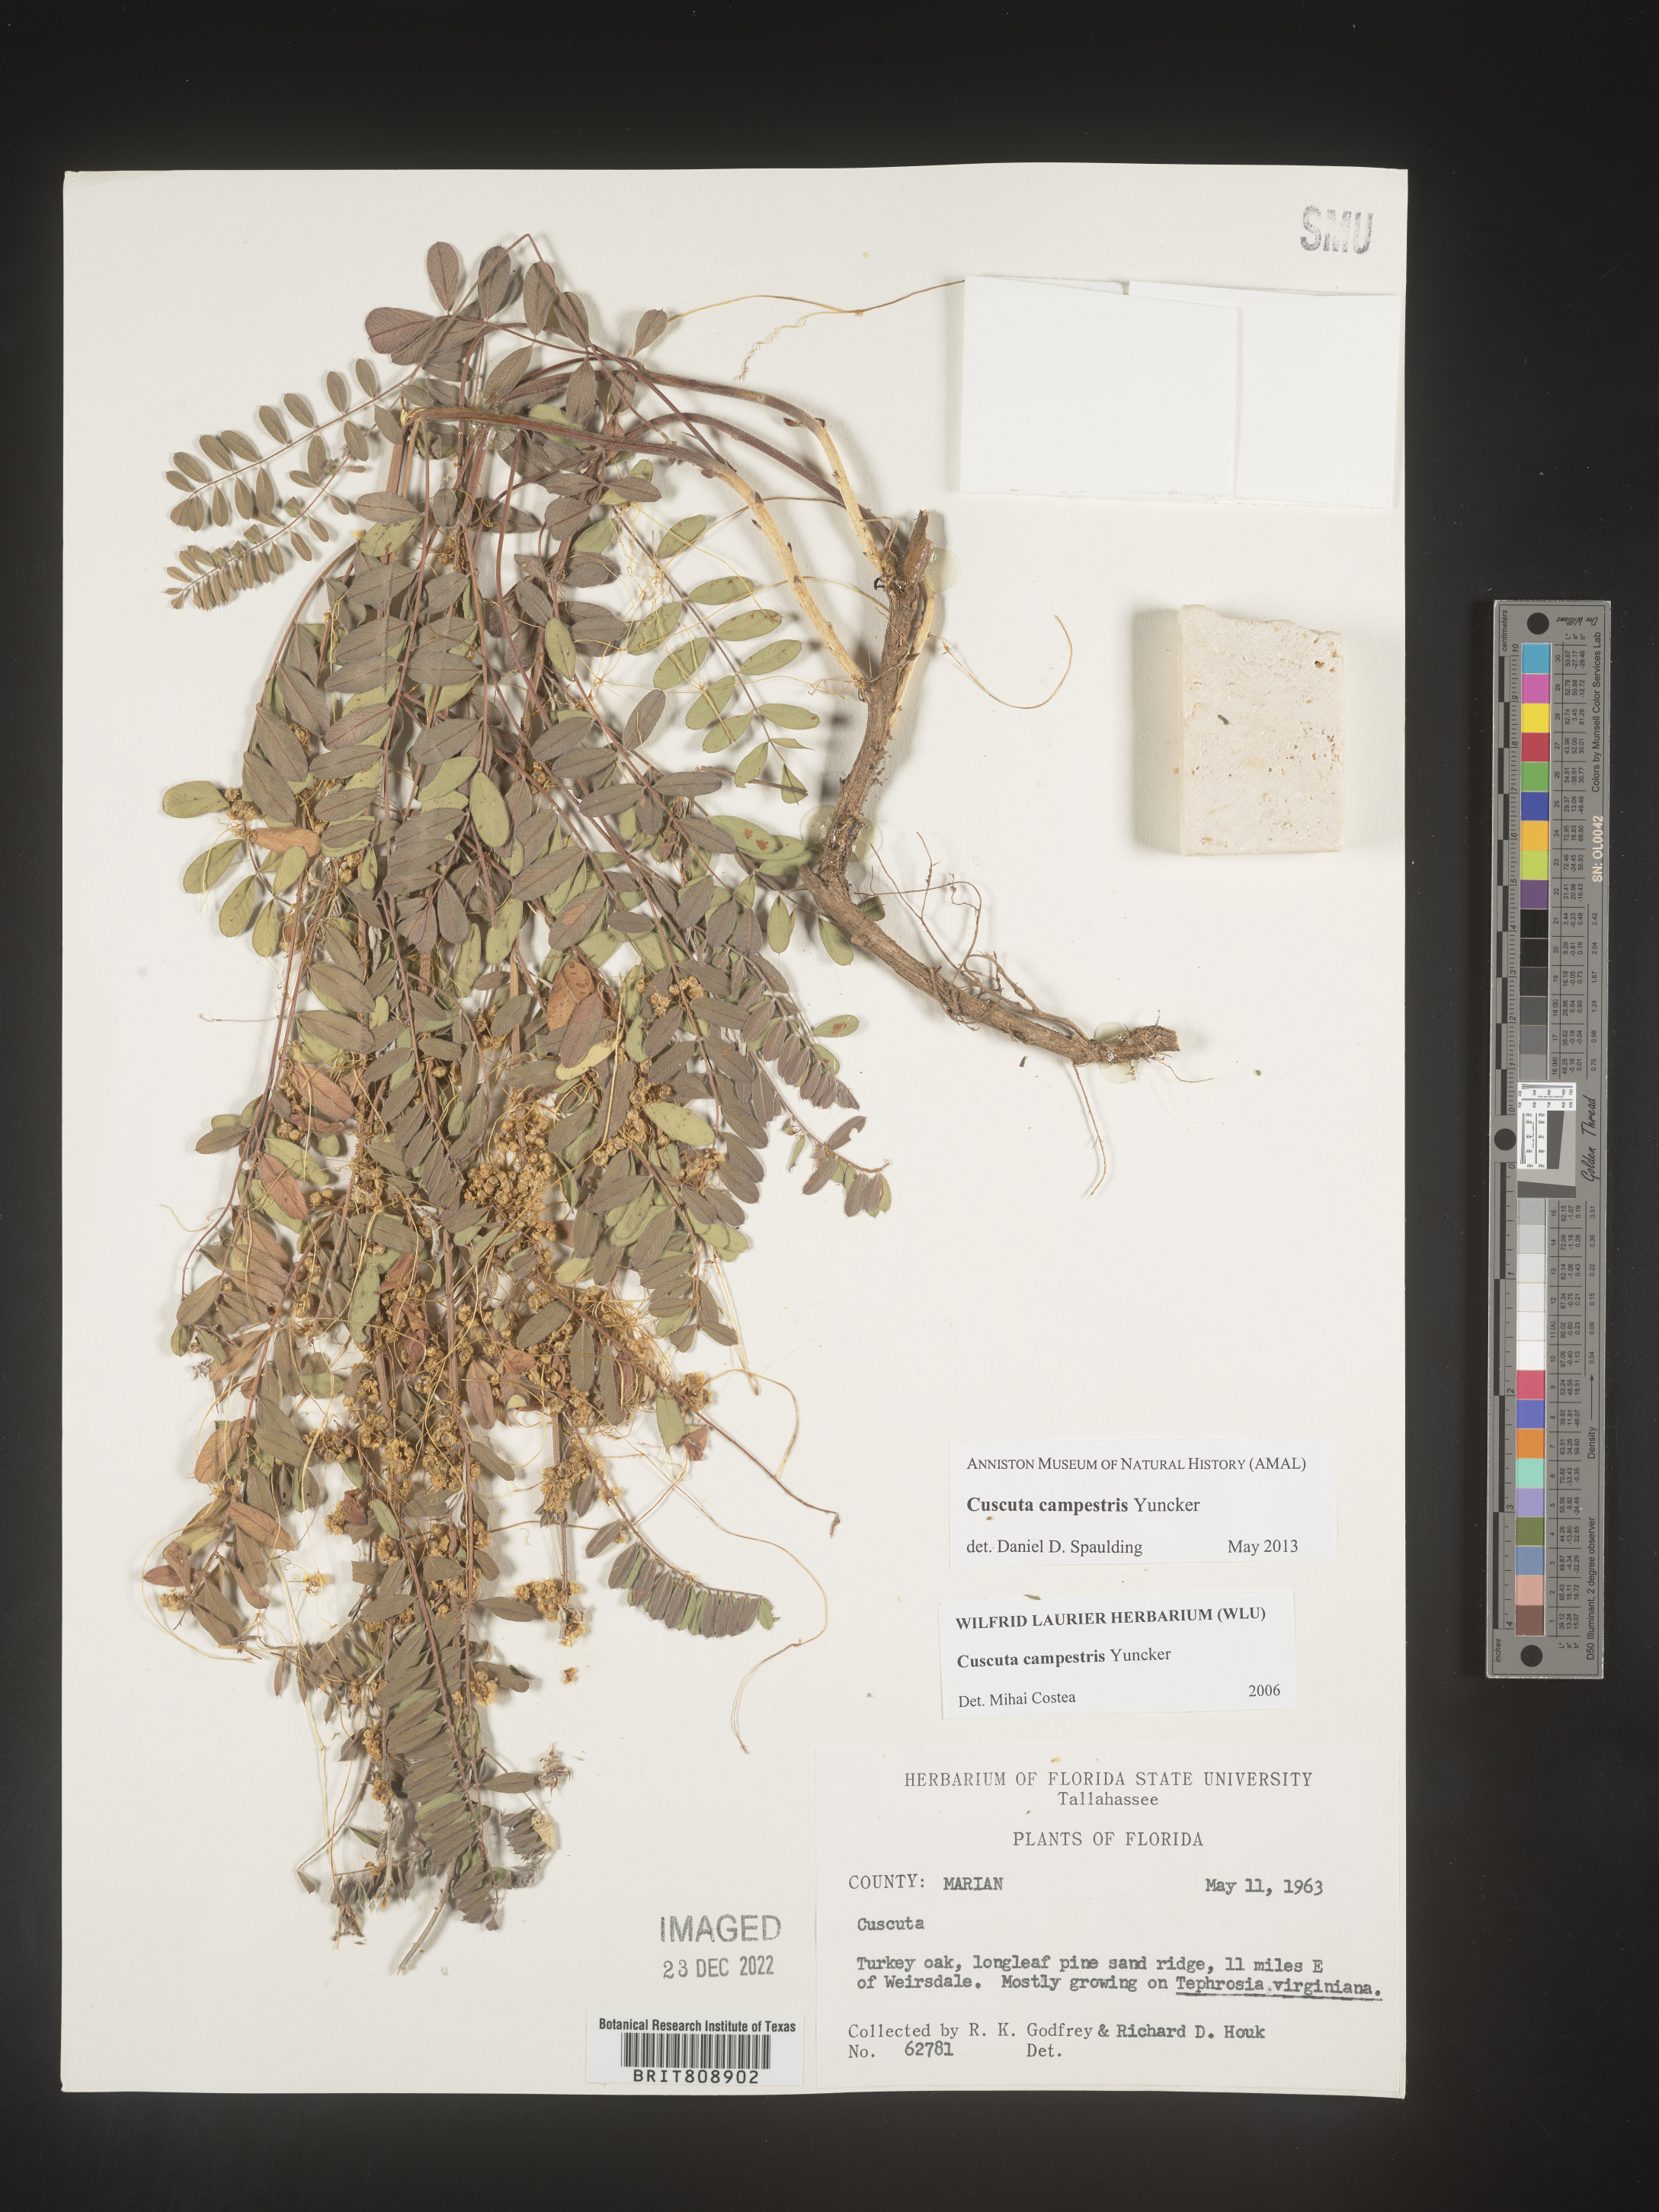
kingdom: Plantae
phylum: Tracheophyta
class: Magnoliopsida
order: Solanales
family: Convolvulaceae
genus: Cuscuta
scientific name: Cuscuta campestris
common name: Yellow dodder
